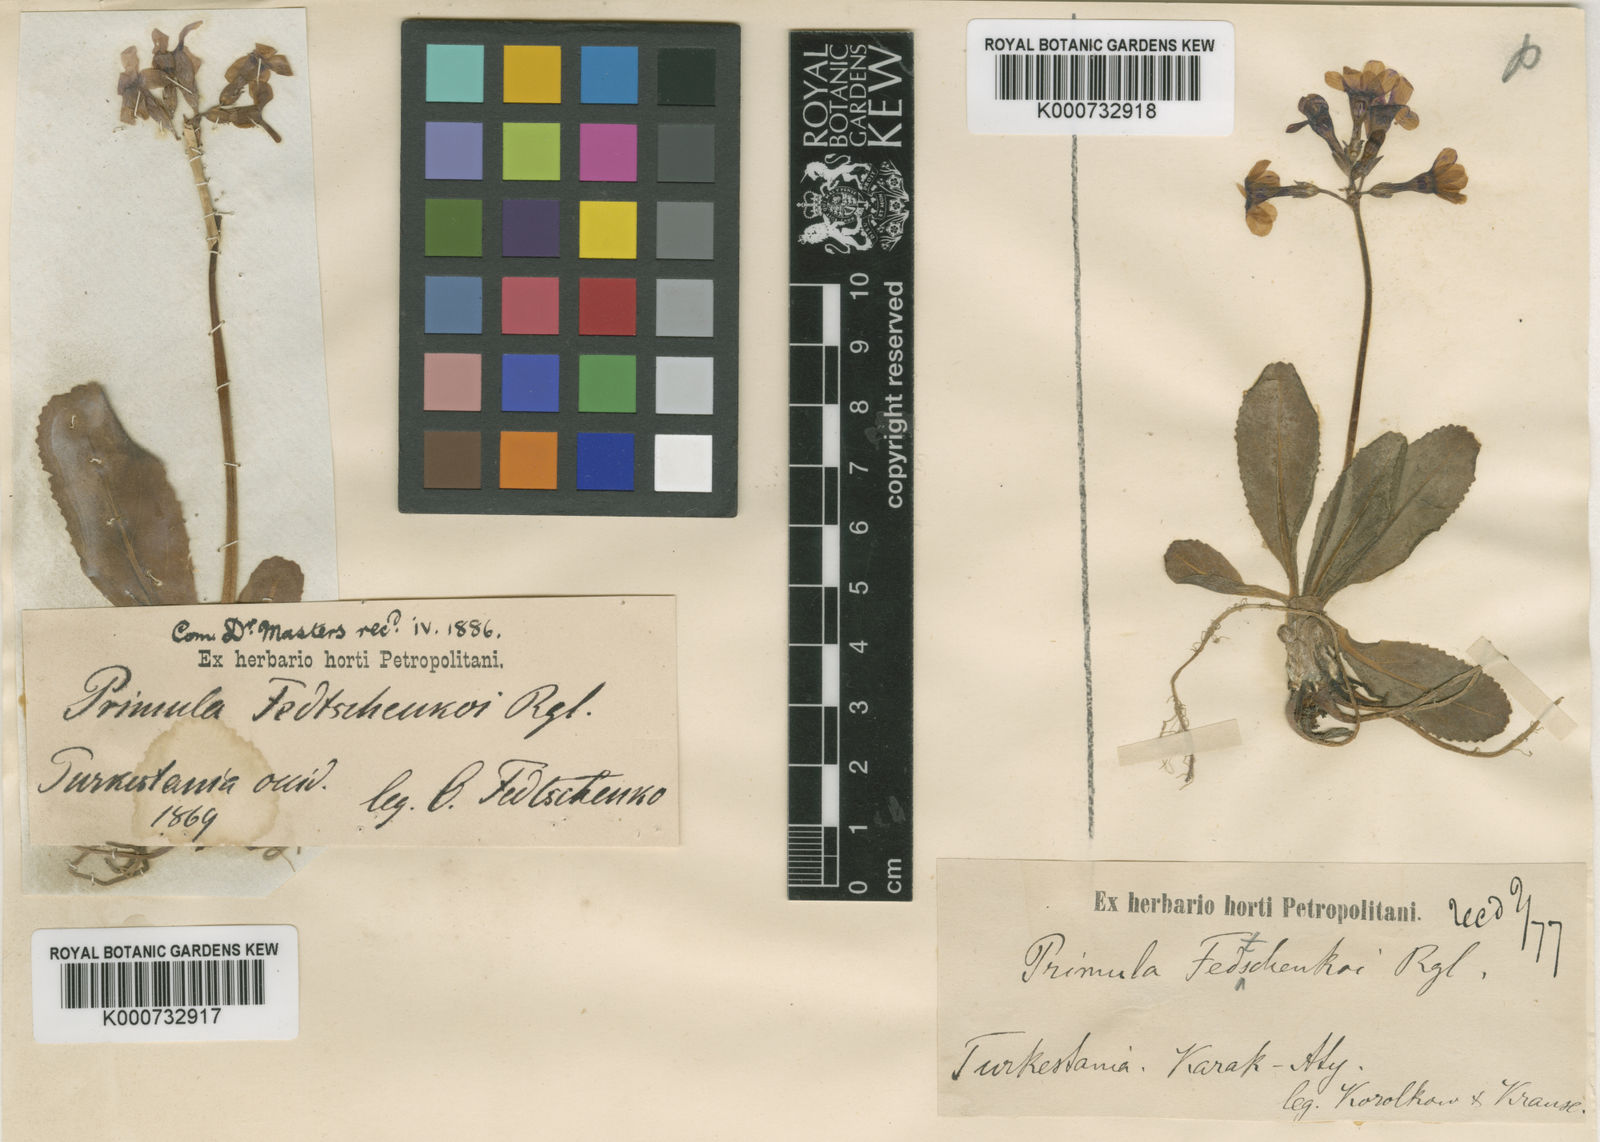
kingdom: Plantae
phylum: Tracheophyta
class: Magnoliopsida
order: Ericales
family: Primulaceae
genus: Primula
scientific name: Primula
